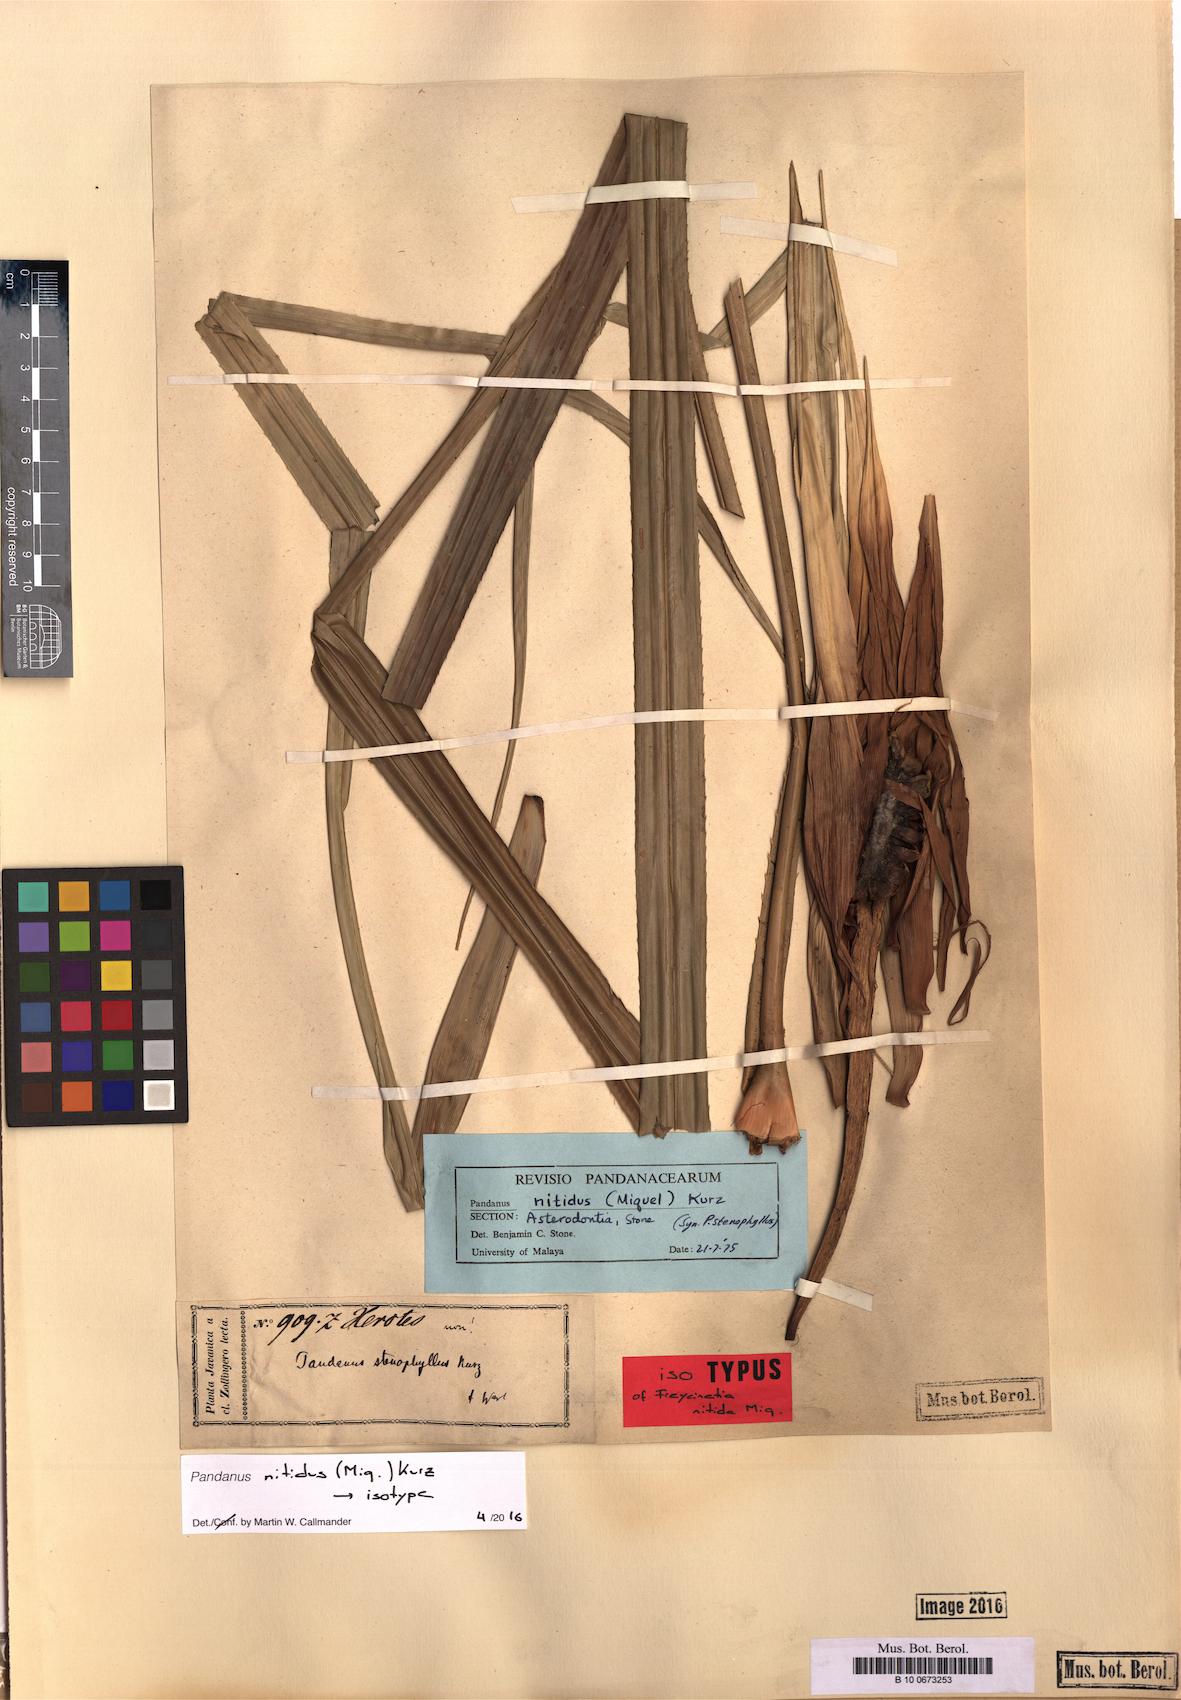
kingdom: Plantae
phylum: Tracheophyta
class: Liliopsida
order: Pandanales
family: Pandanaceae
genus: Pandanus
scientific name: Pandanus nitidus
